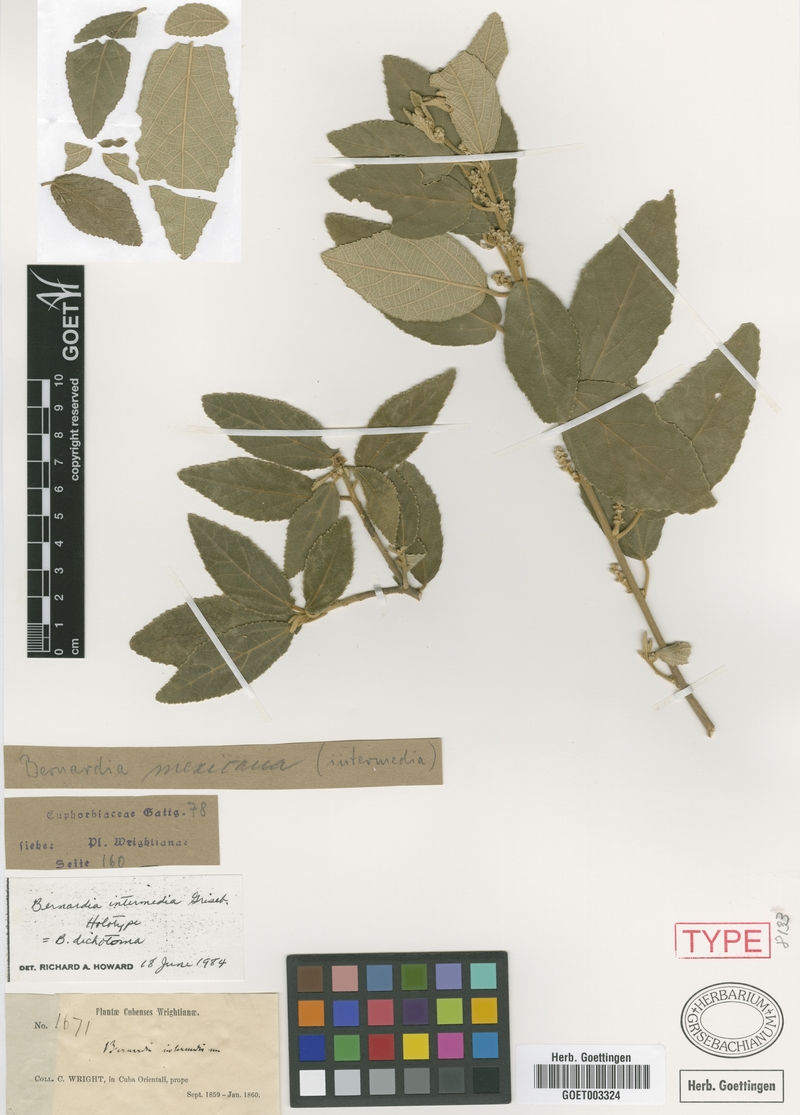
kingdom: Plantae
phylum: Tracheophyta
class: Magnoliopsida
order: Malpighiales
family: Euphorbiaceae
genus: Bernardia
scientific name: Bernardia dichotoma
